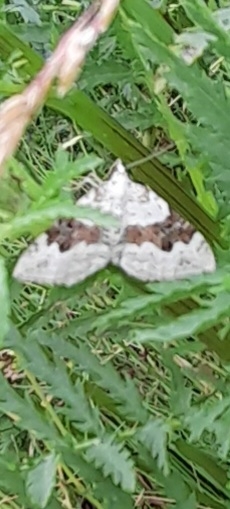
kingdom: Animalia
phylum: Arthropoda
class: Insecta
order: Lepidoptera
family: Geometridae
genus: Xanthorhoe
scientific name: Xanthorhoe montanata
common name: Bakke-bladmåler
